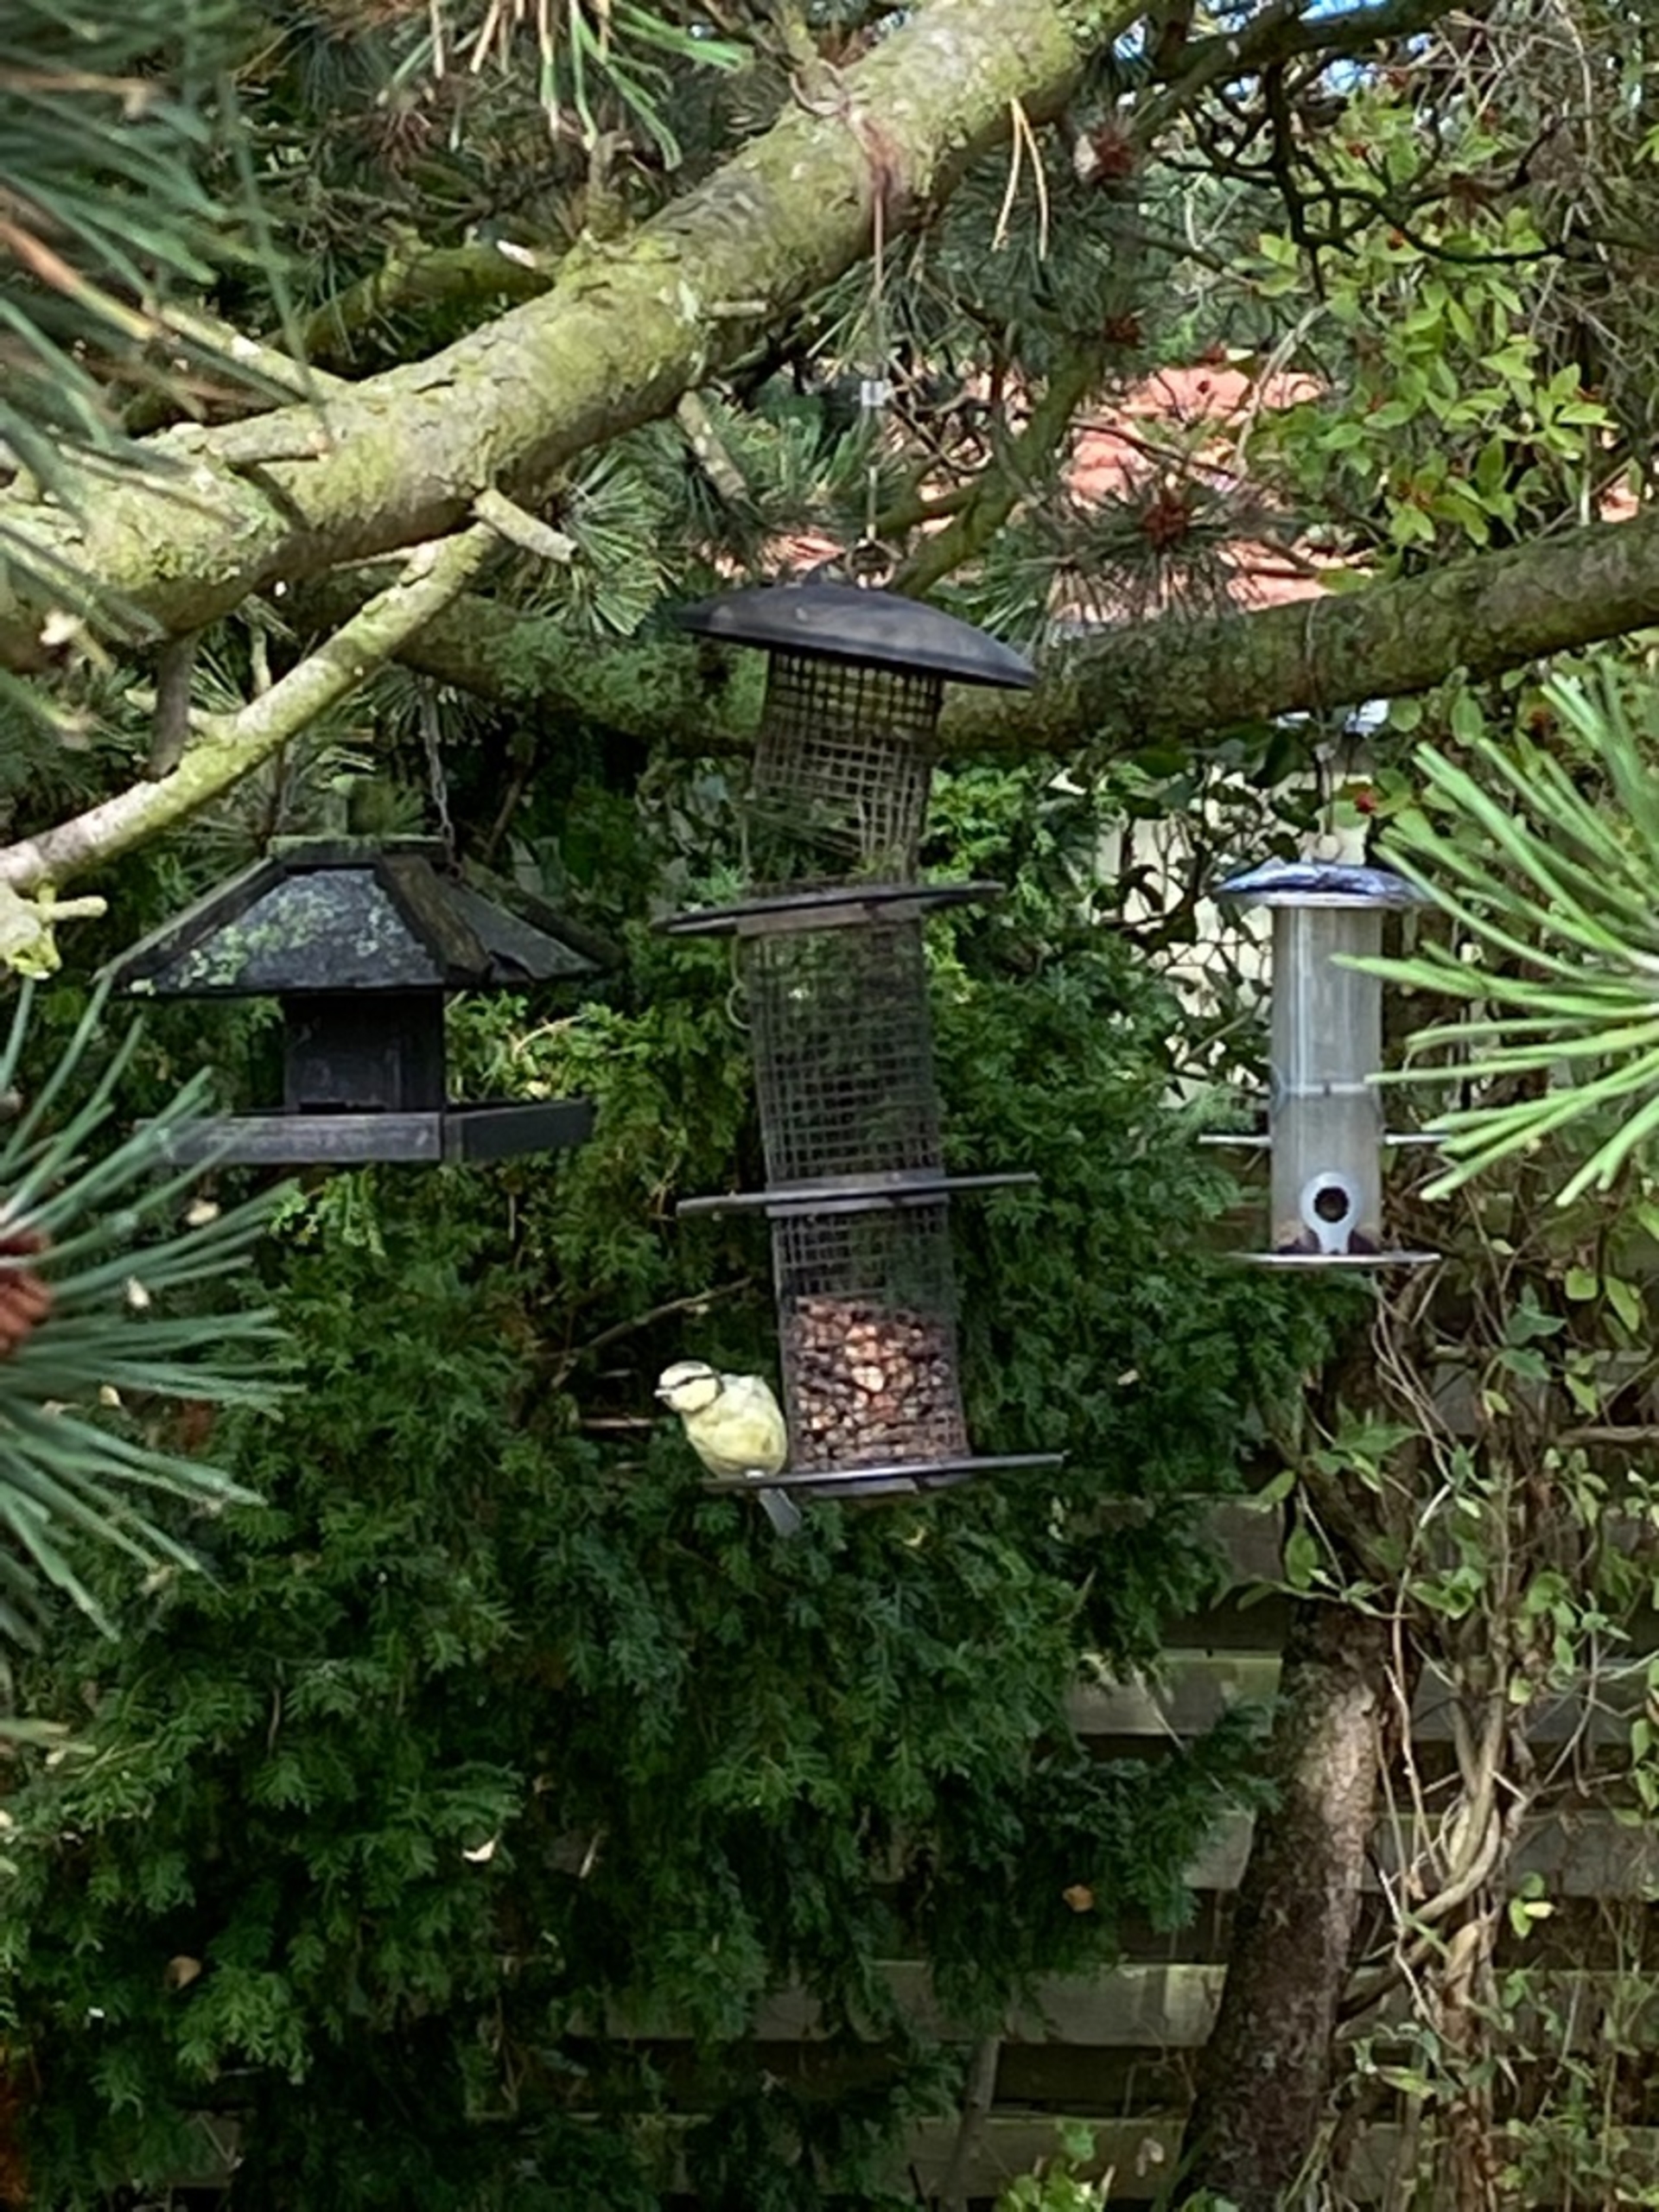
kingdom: Animalia
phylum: Chordata
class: Aves
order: Passeriformes
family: Paridae
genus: Cyanistes
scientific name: Cyanistes caeruleus
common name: Blåmejse
